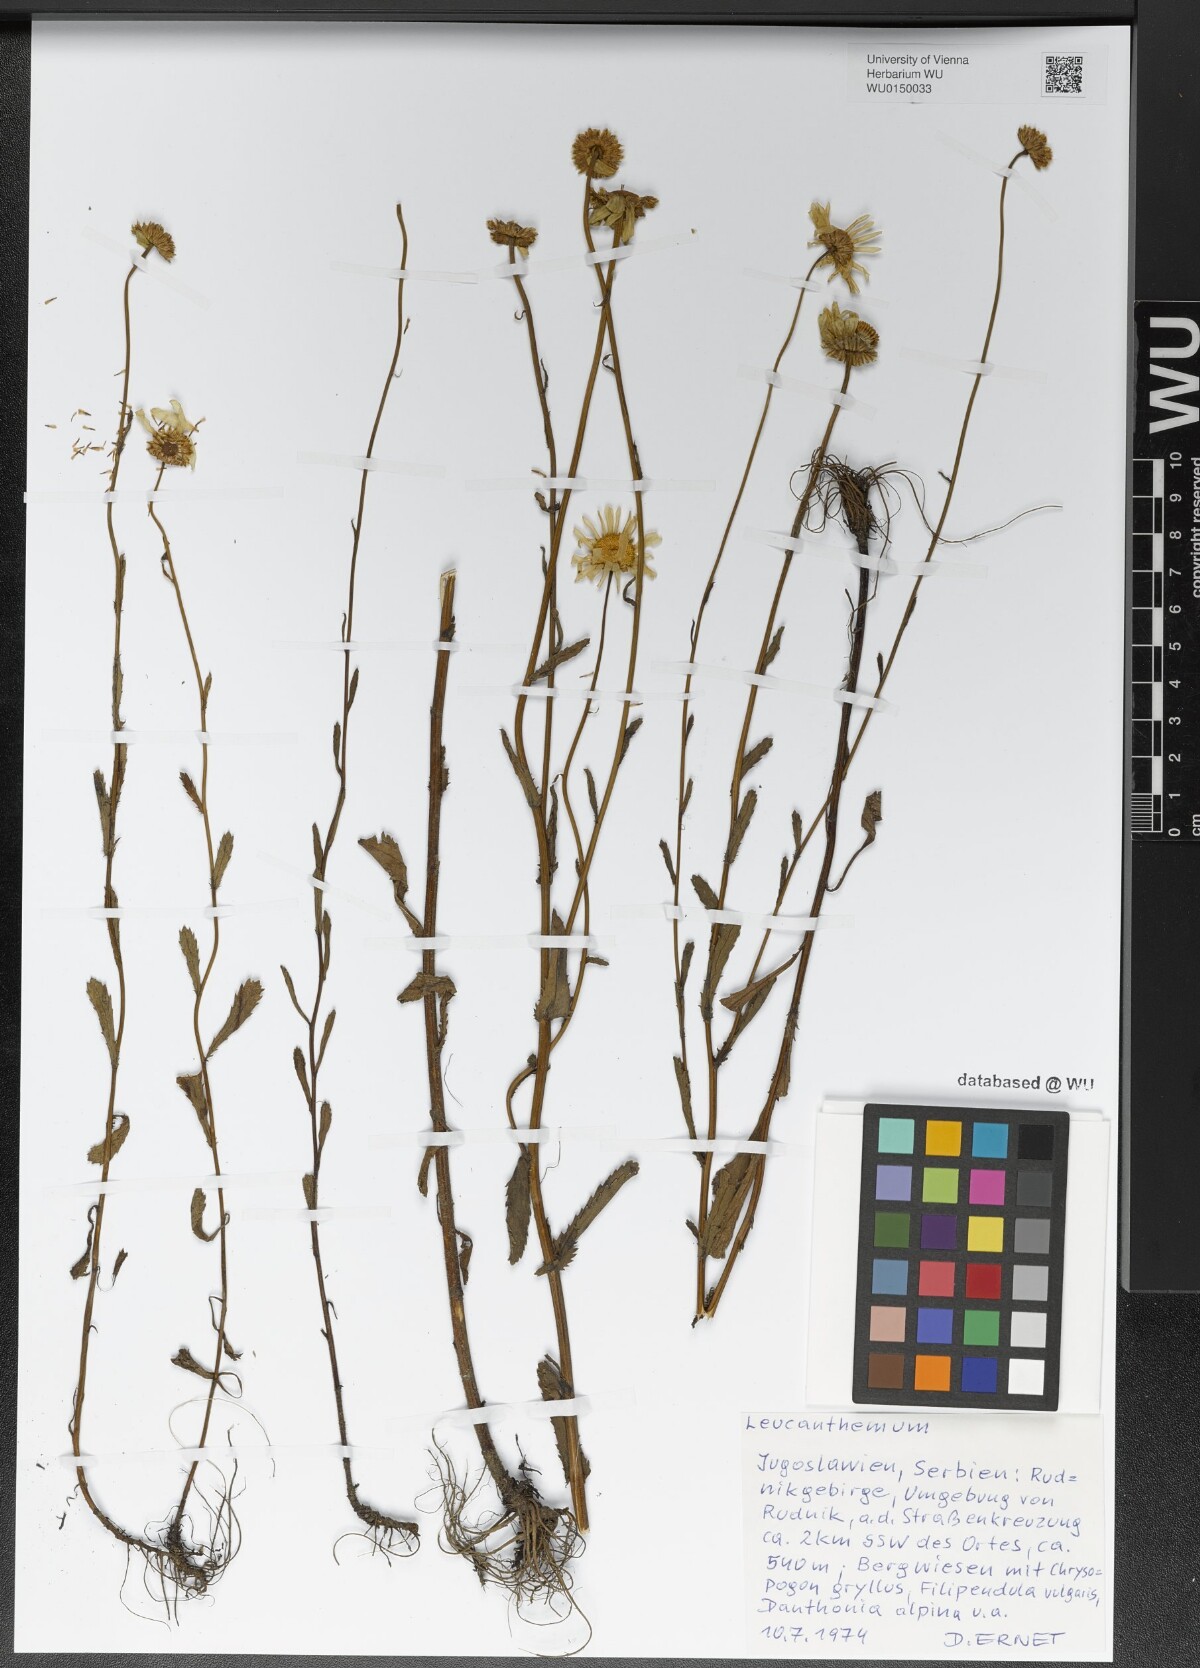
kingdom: Plantae
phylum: Tracheophyta
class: Magnoliopsida
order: Asterales
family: Asteraceae
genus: Leucanthemum
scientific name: Leucanthemum
